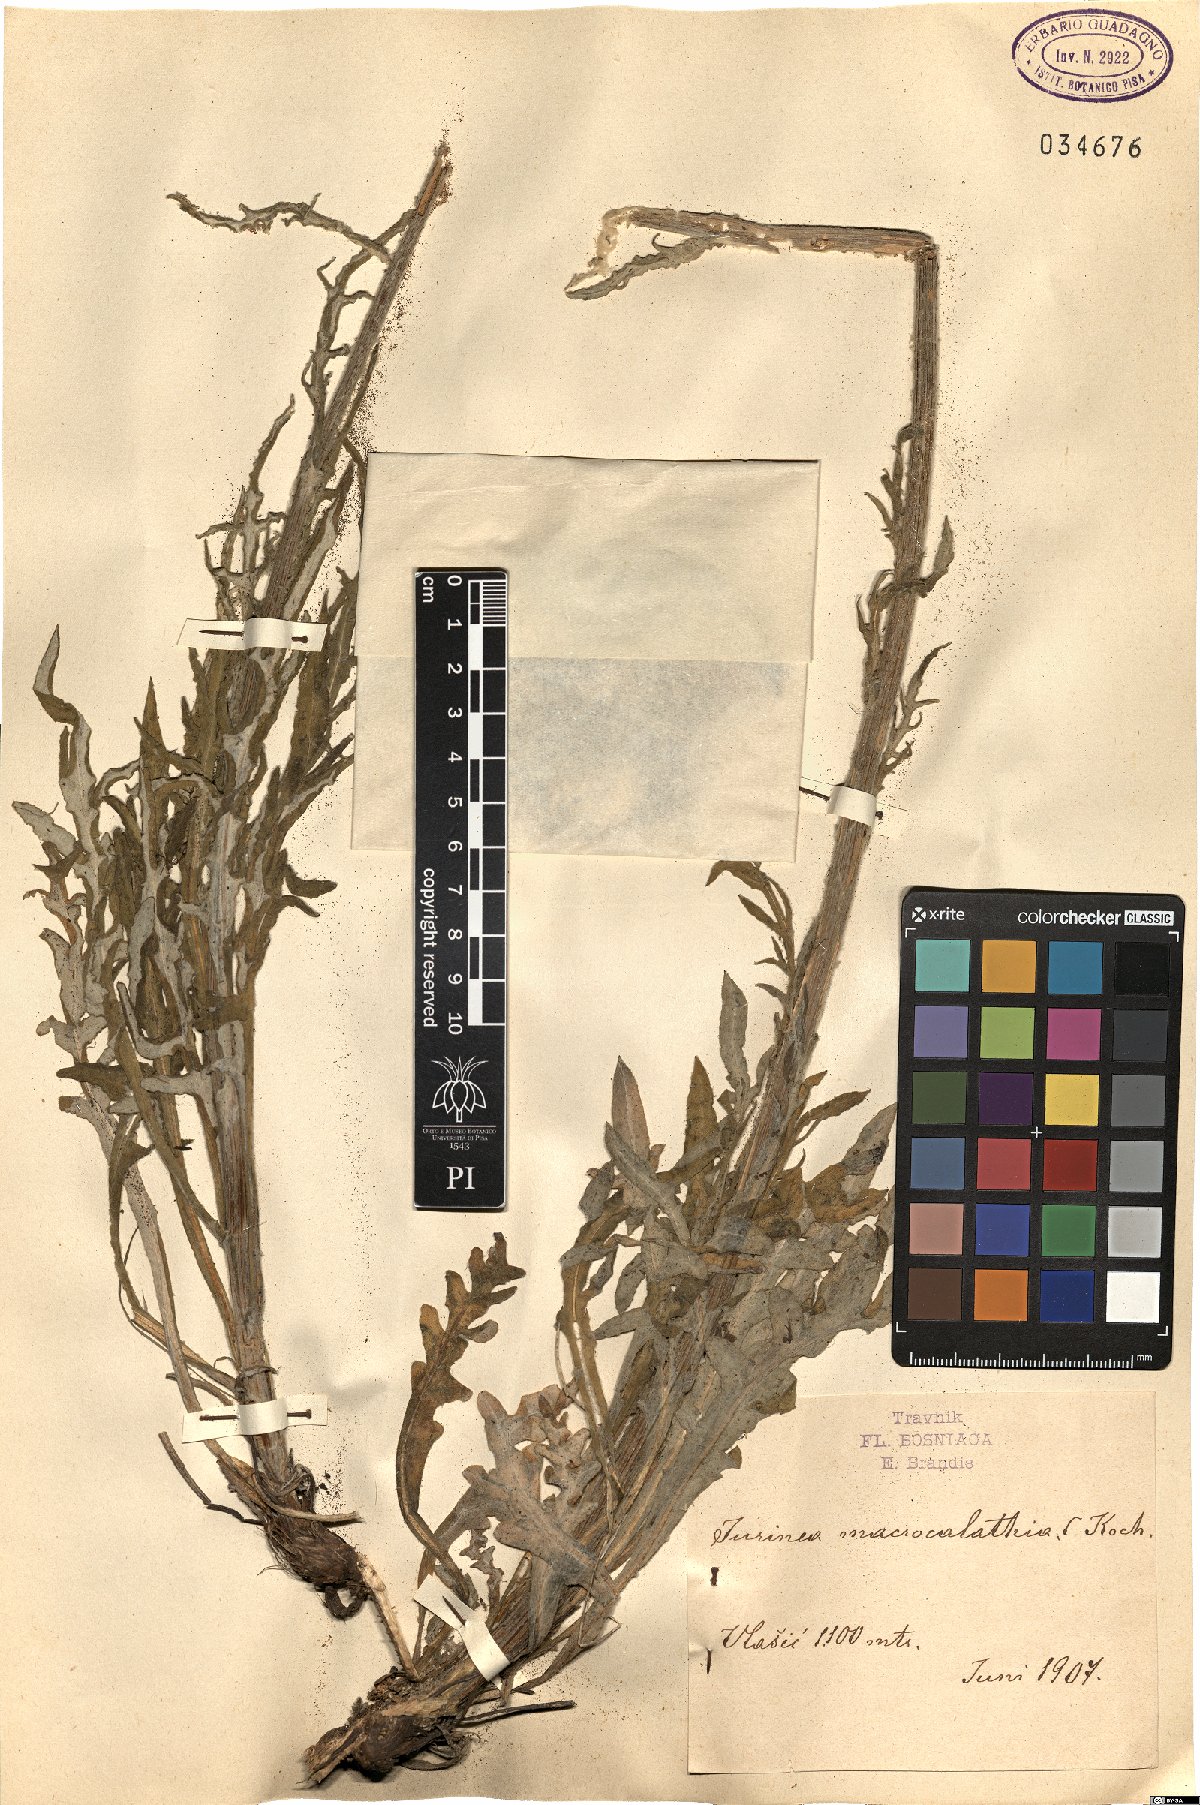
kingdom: Plantae
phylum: Tracheophyta
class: Magnoliopsida
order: Asterales
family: Asteraceae
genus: Jurinea
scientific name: Jurinea glycacantha
